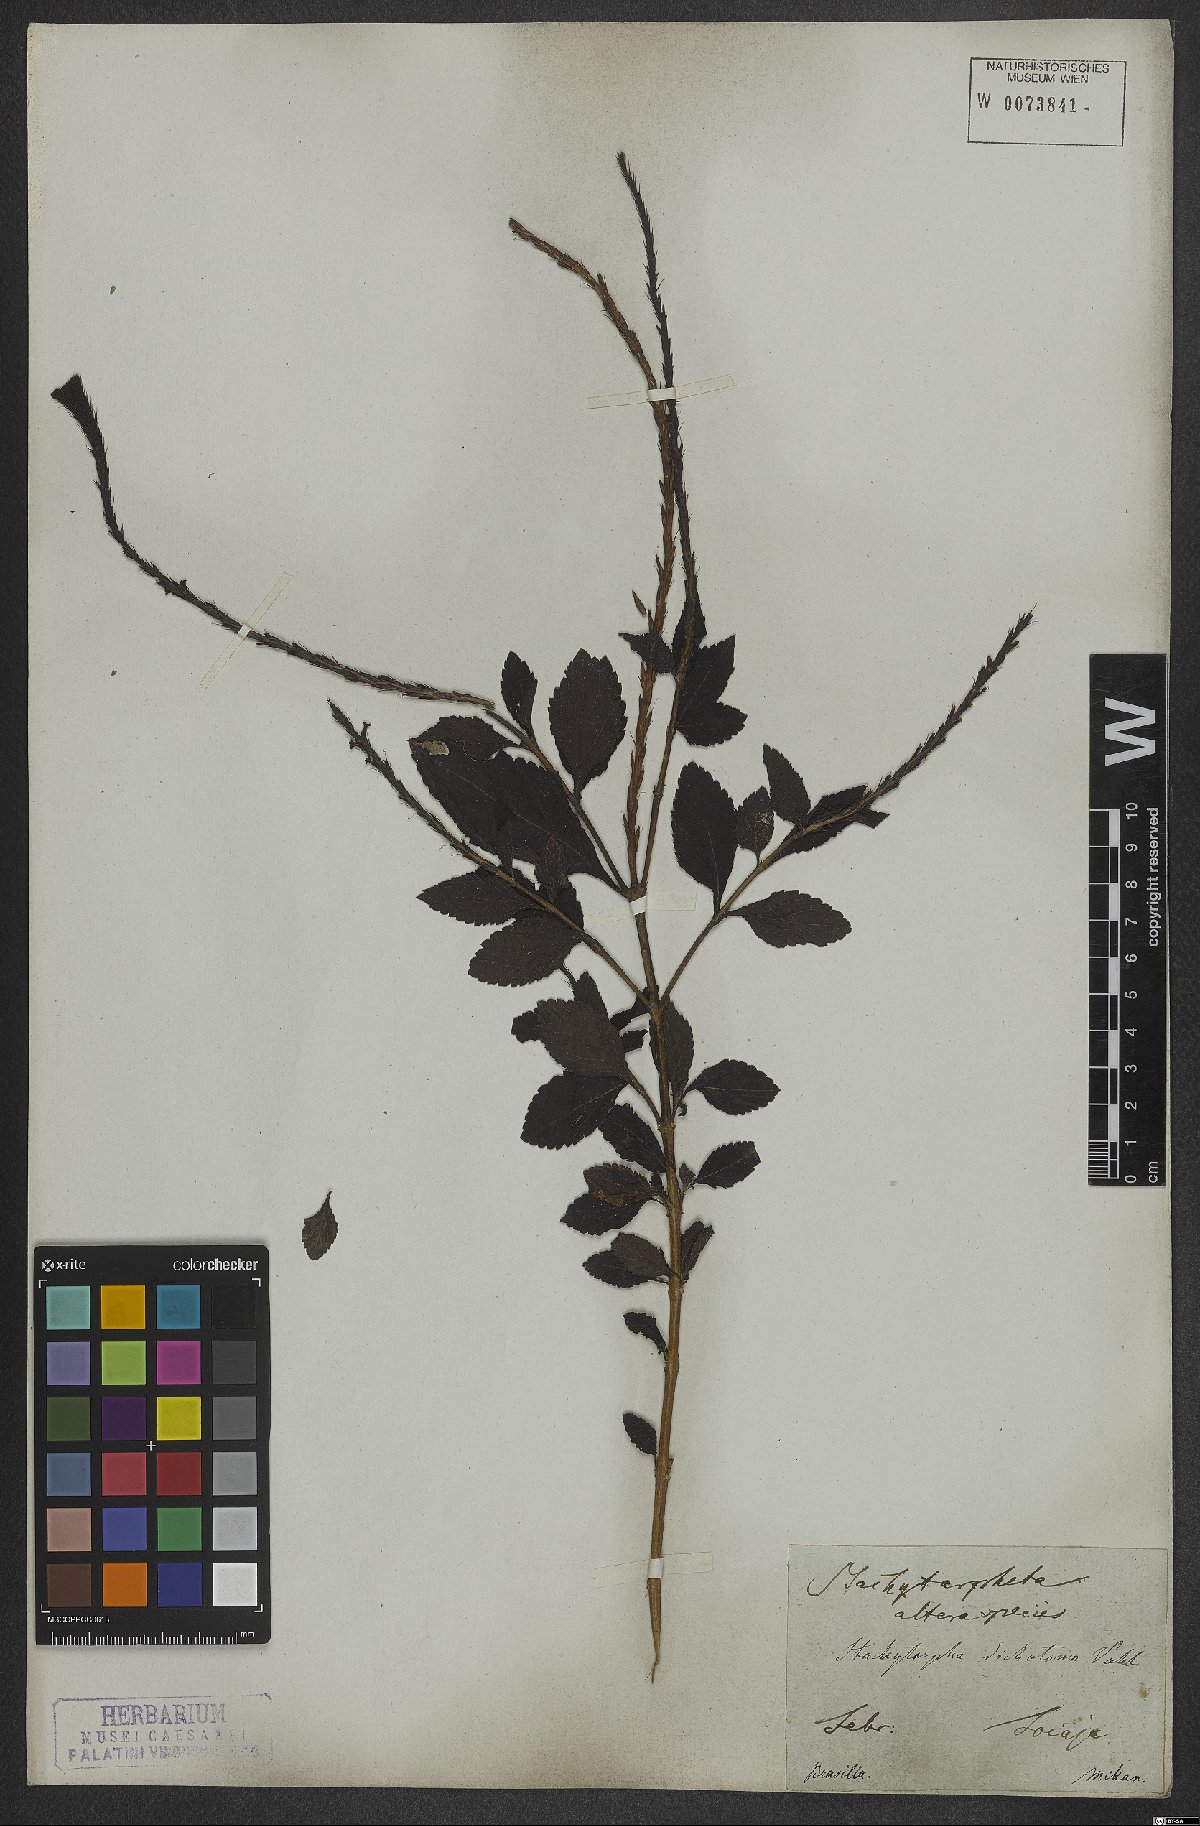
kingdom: Plantae
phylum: Tracheophyta
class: Magnoliopsida
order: Lamiales
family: Verbenaceae
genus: Stachytarpheta
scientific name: Stachytarpheta cayennensis
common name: Cayenne porterweed
